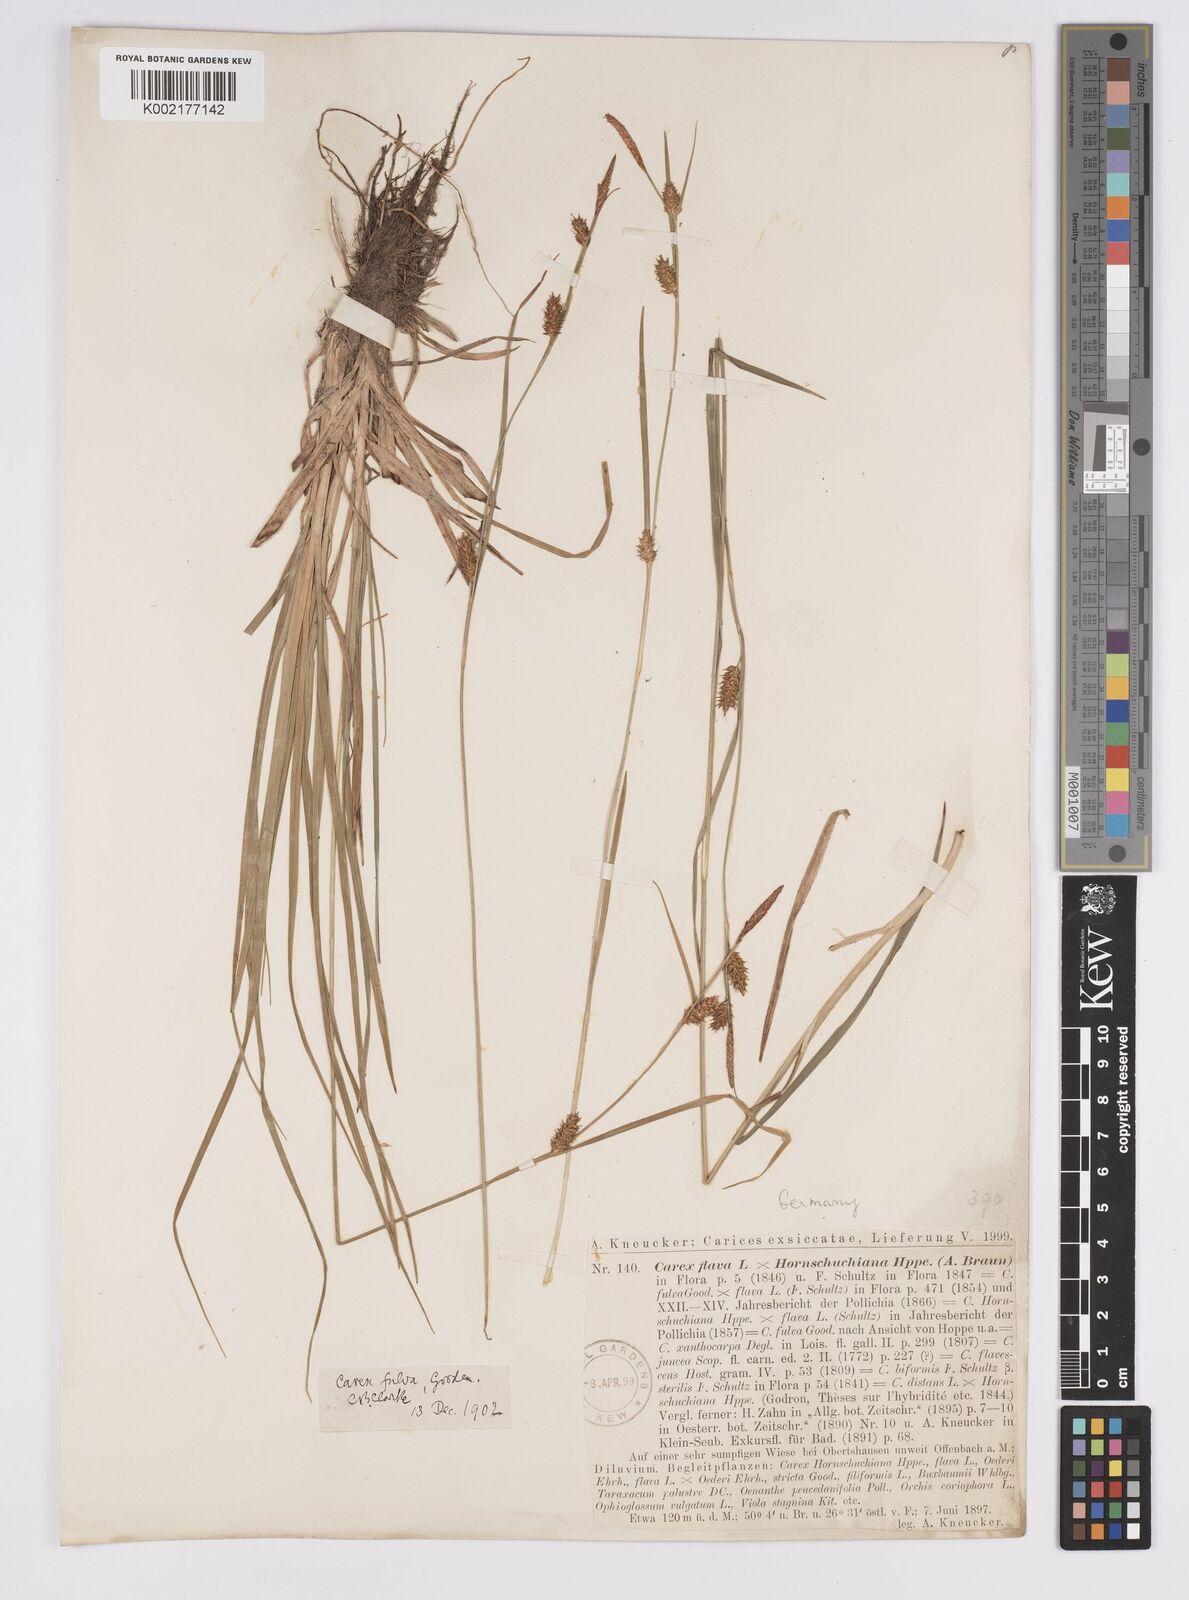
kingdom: Plantae
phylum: Tracheophyta
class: Liliopsida
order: Poales
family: Cyperaceae
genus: Carex
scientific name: Carex hostiana
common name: Tawny sedge
